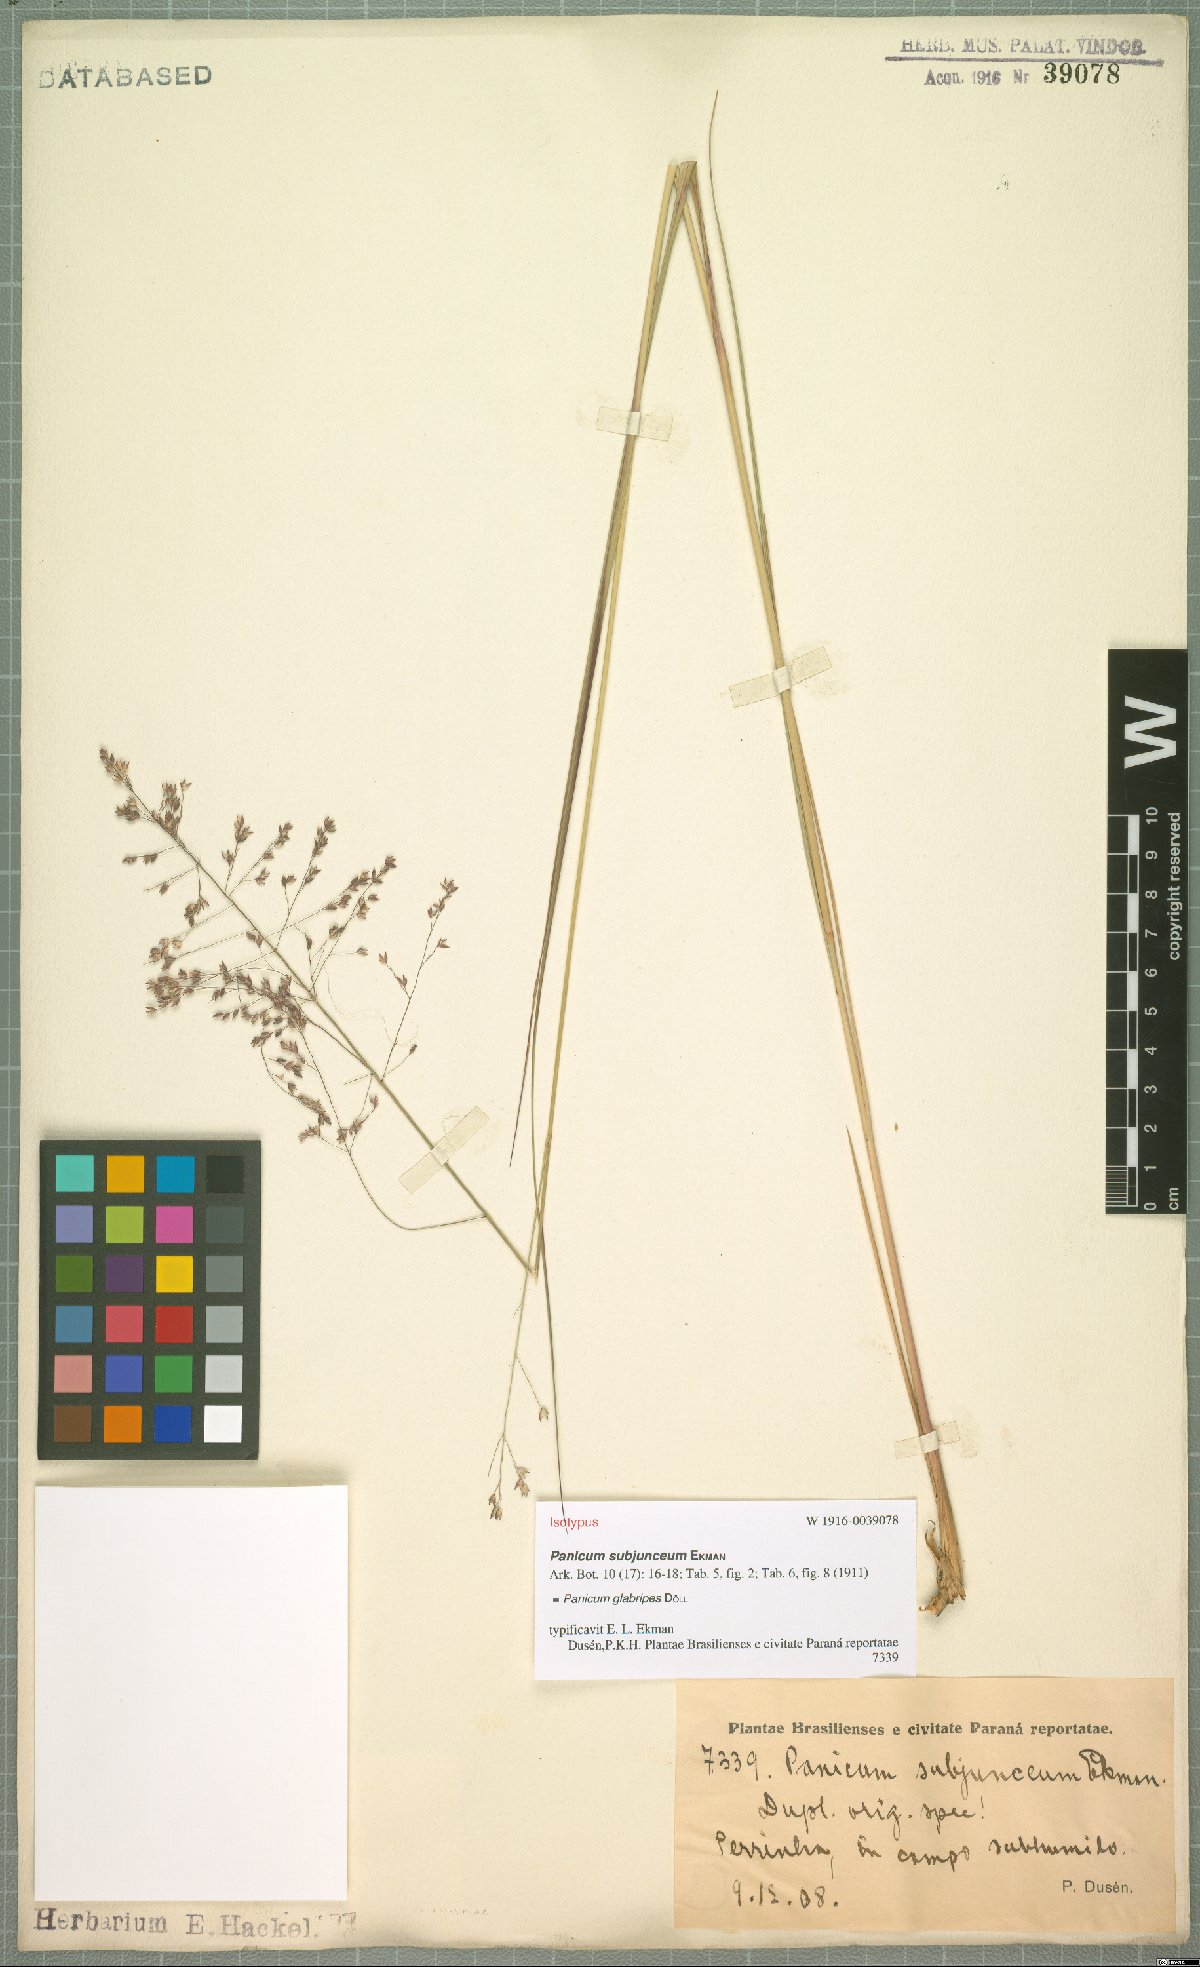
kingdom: Plantae
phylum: Tracheophyta
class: Liliopsida
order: Poales
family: Poaceae
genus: Panicum
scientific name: Panicum glabripes
